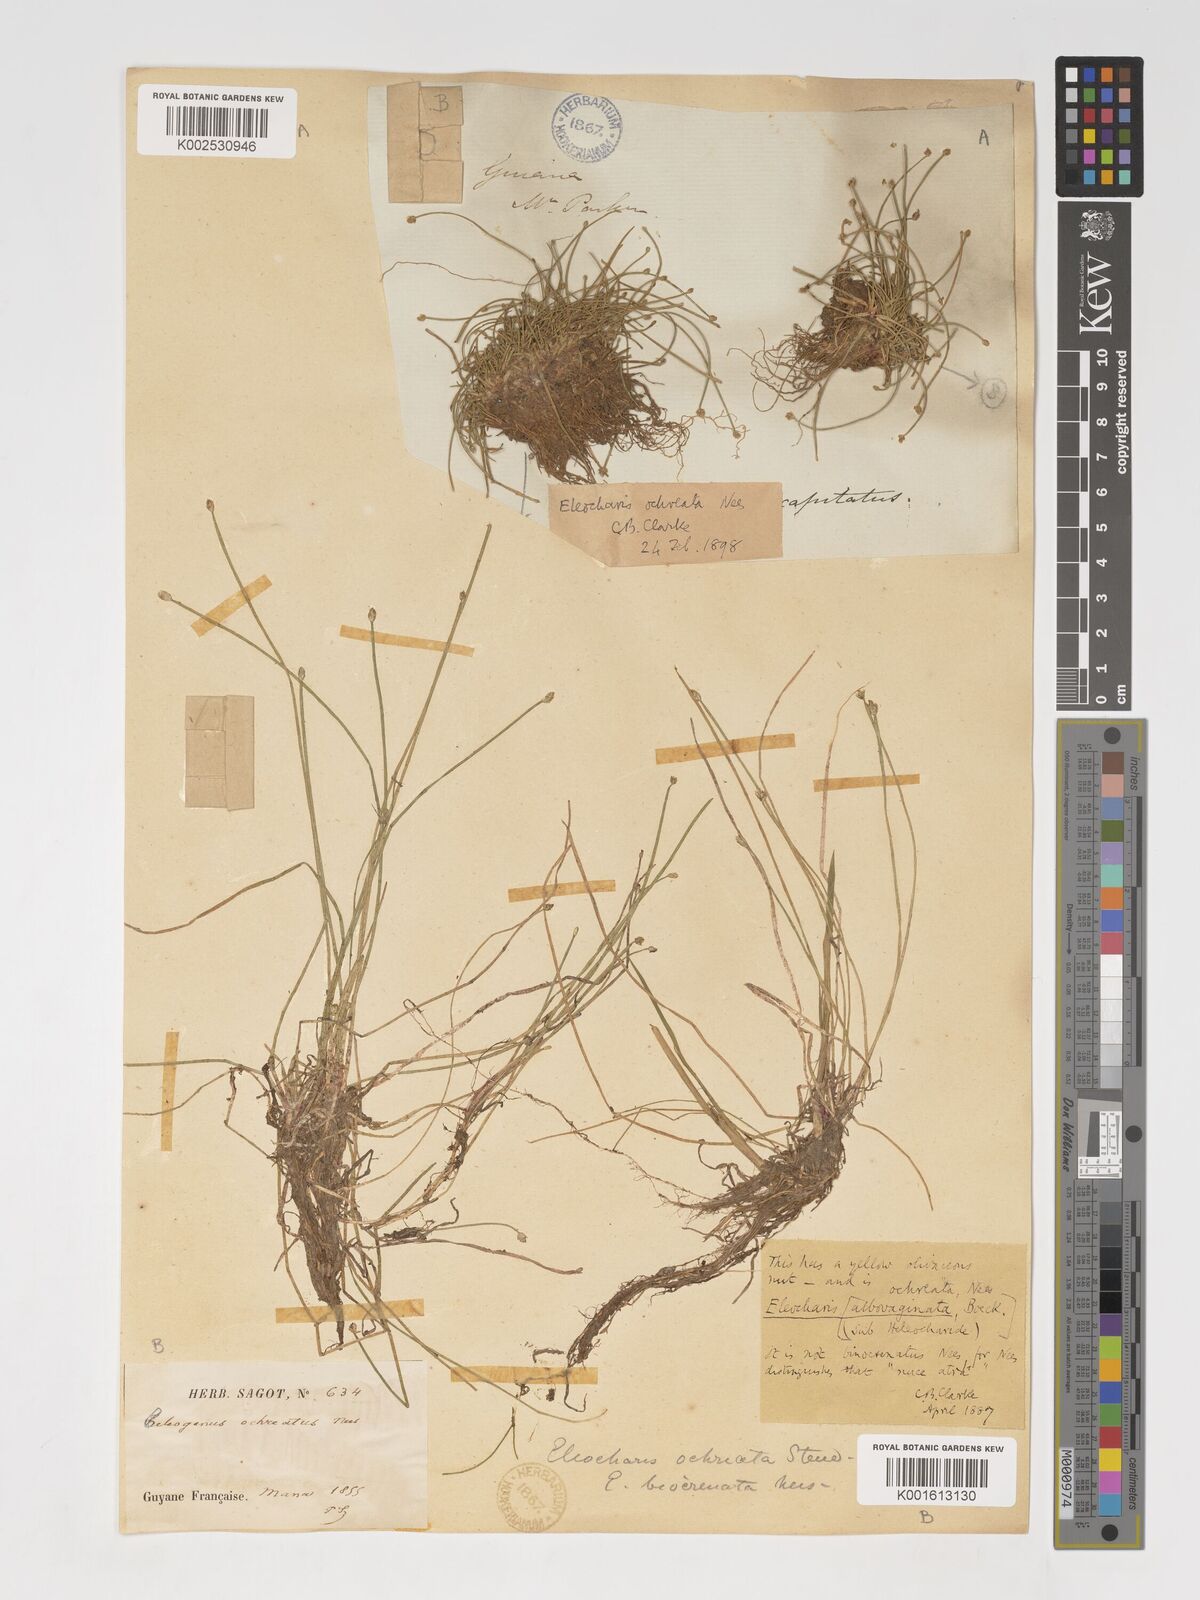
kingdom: Plantae
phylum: Tracheophyta
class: Liliopsida
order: Poales
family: Cyperaceae
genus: Eleocharis
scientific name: Eleocharis flavescens
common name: Yellow spikerush
